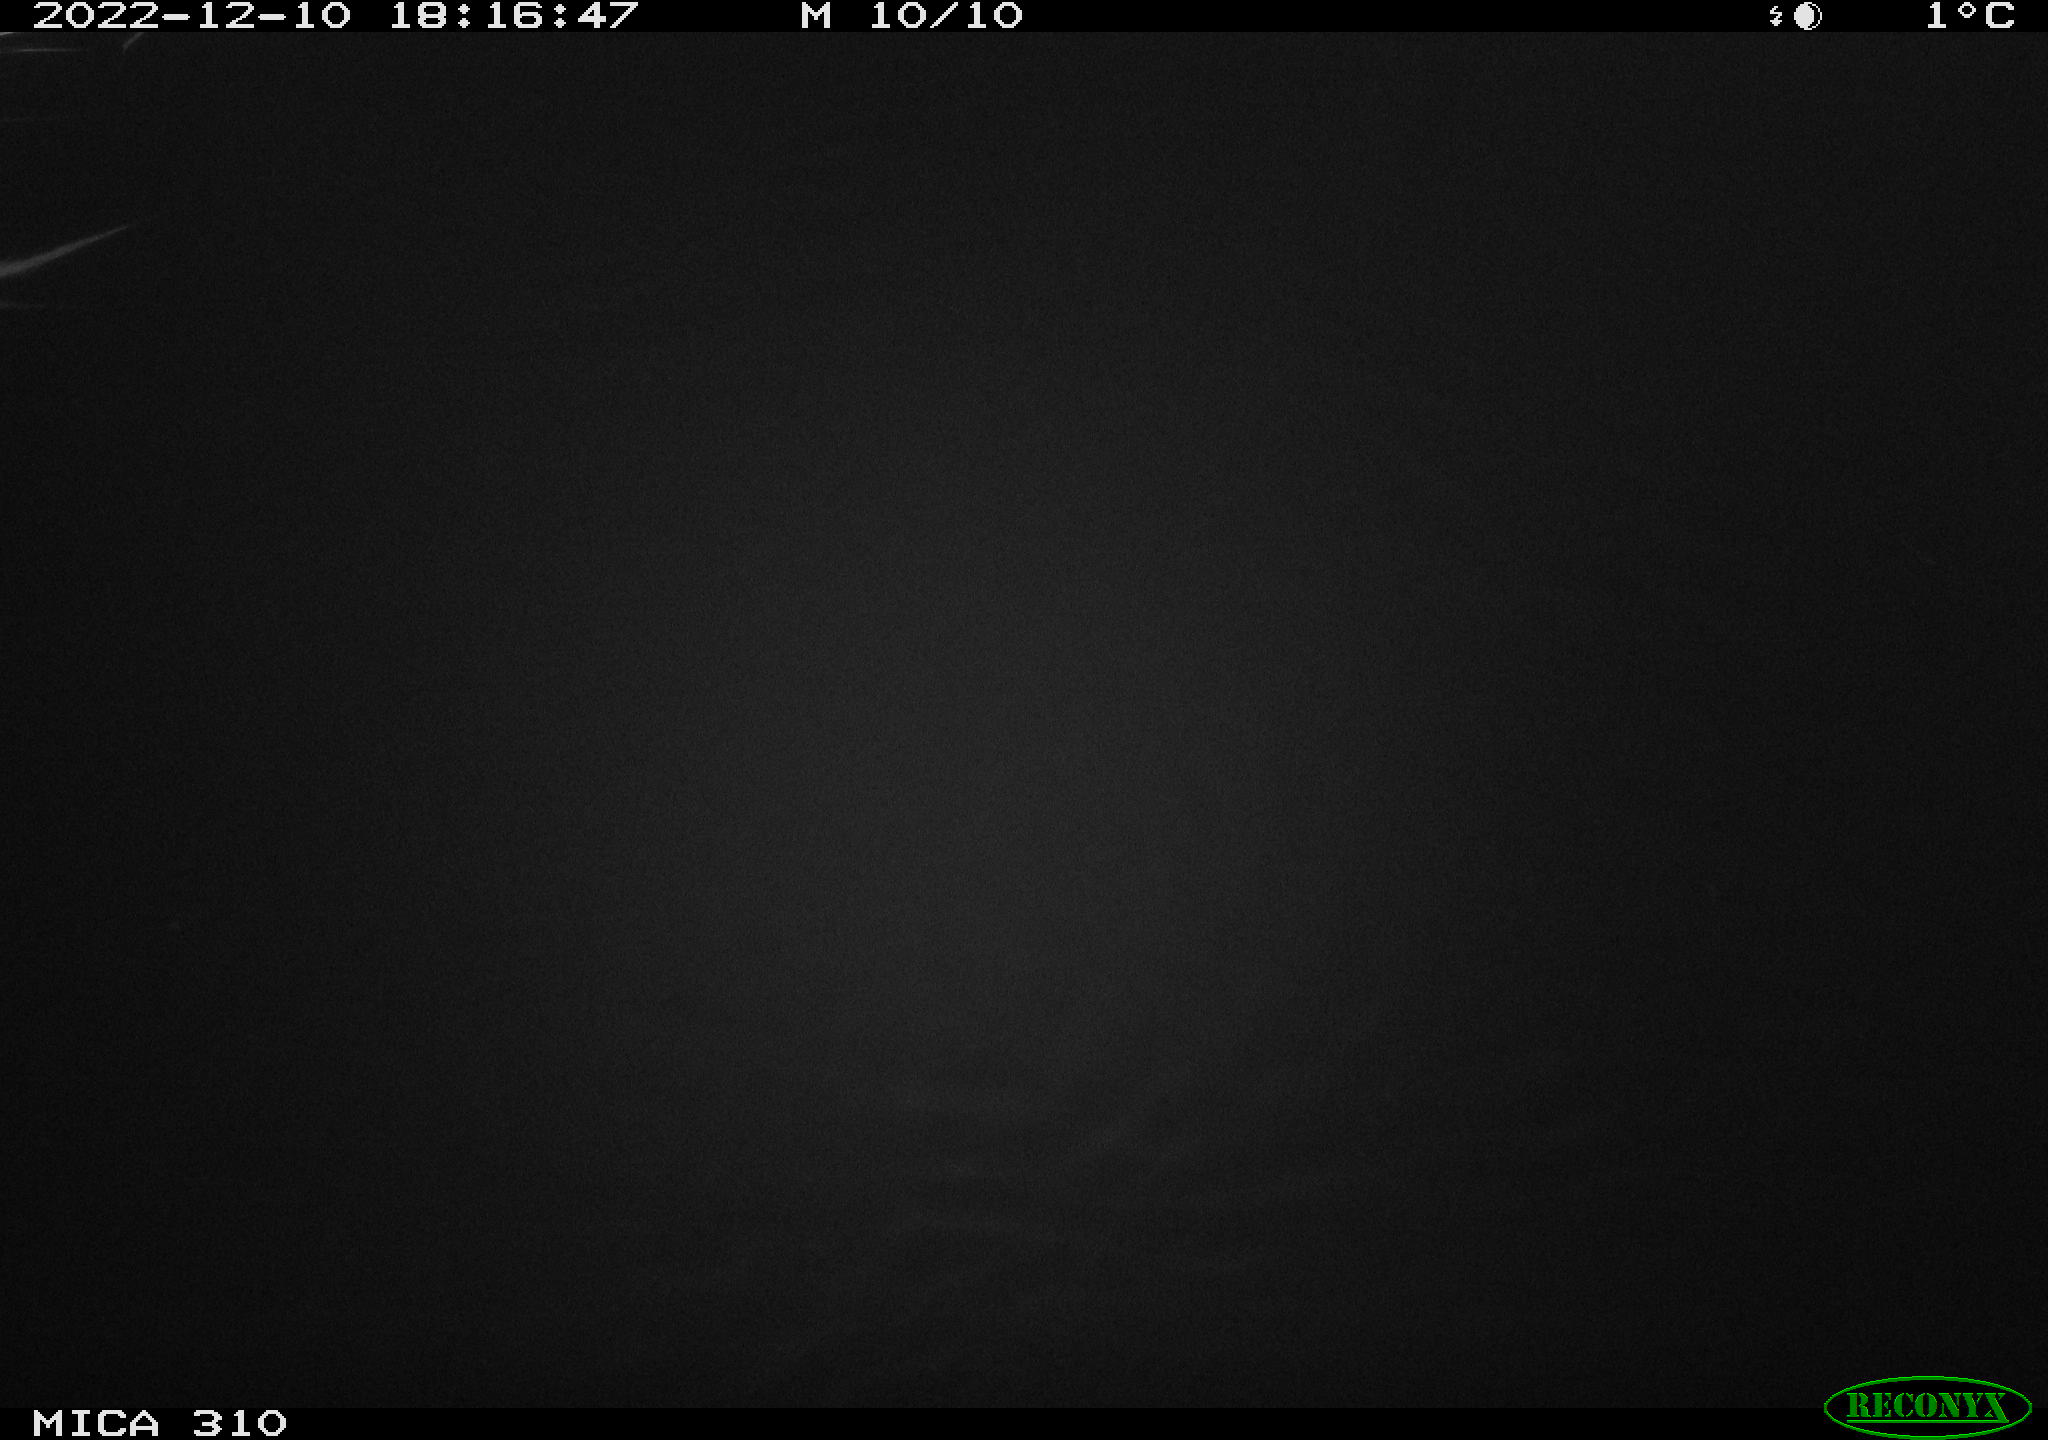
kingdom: Animalia
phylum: Chordata
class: Mammalia
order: Rodentia
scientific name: Rodentia
